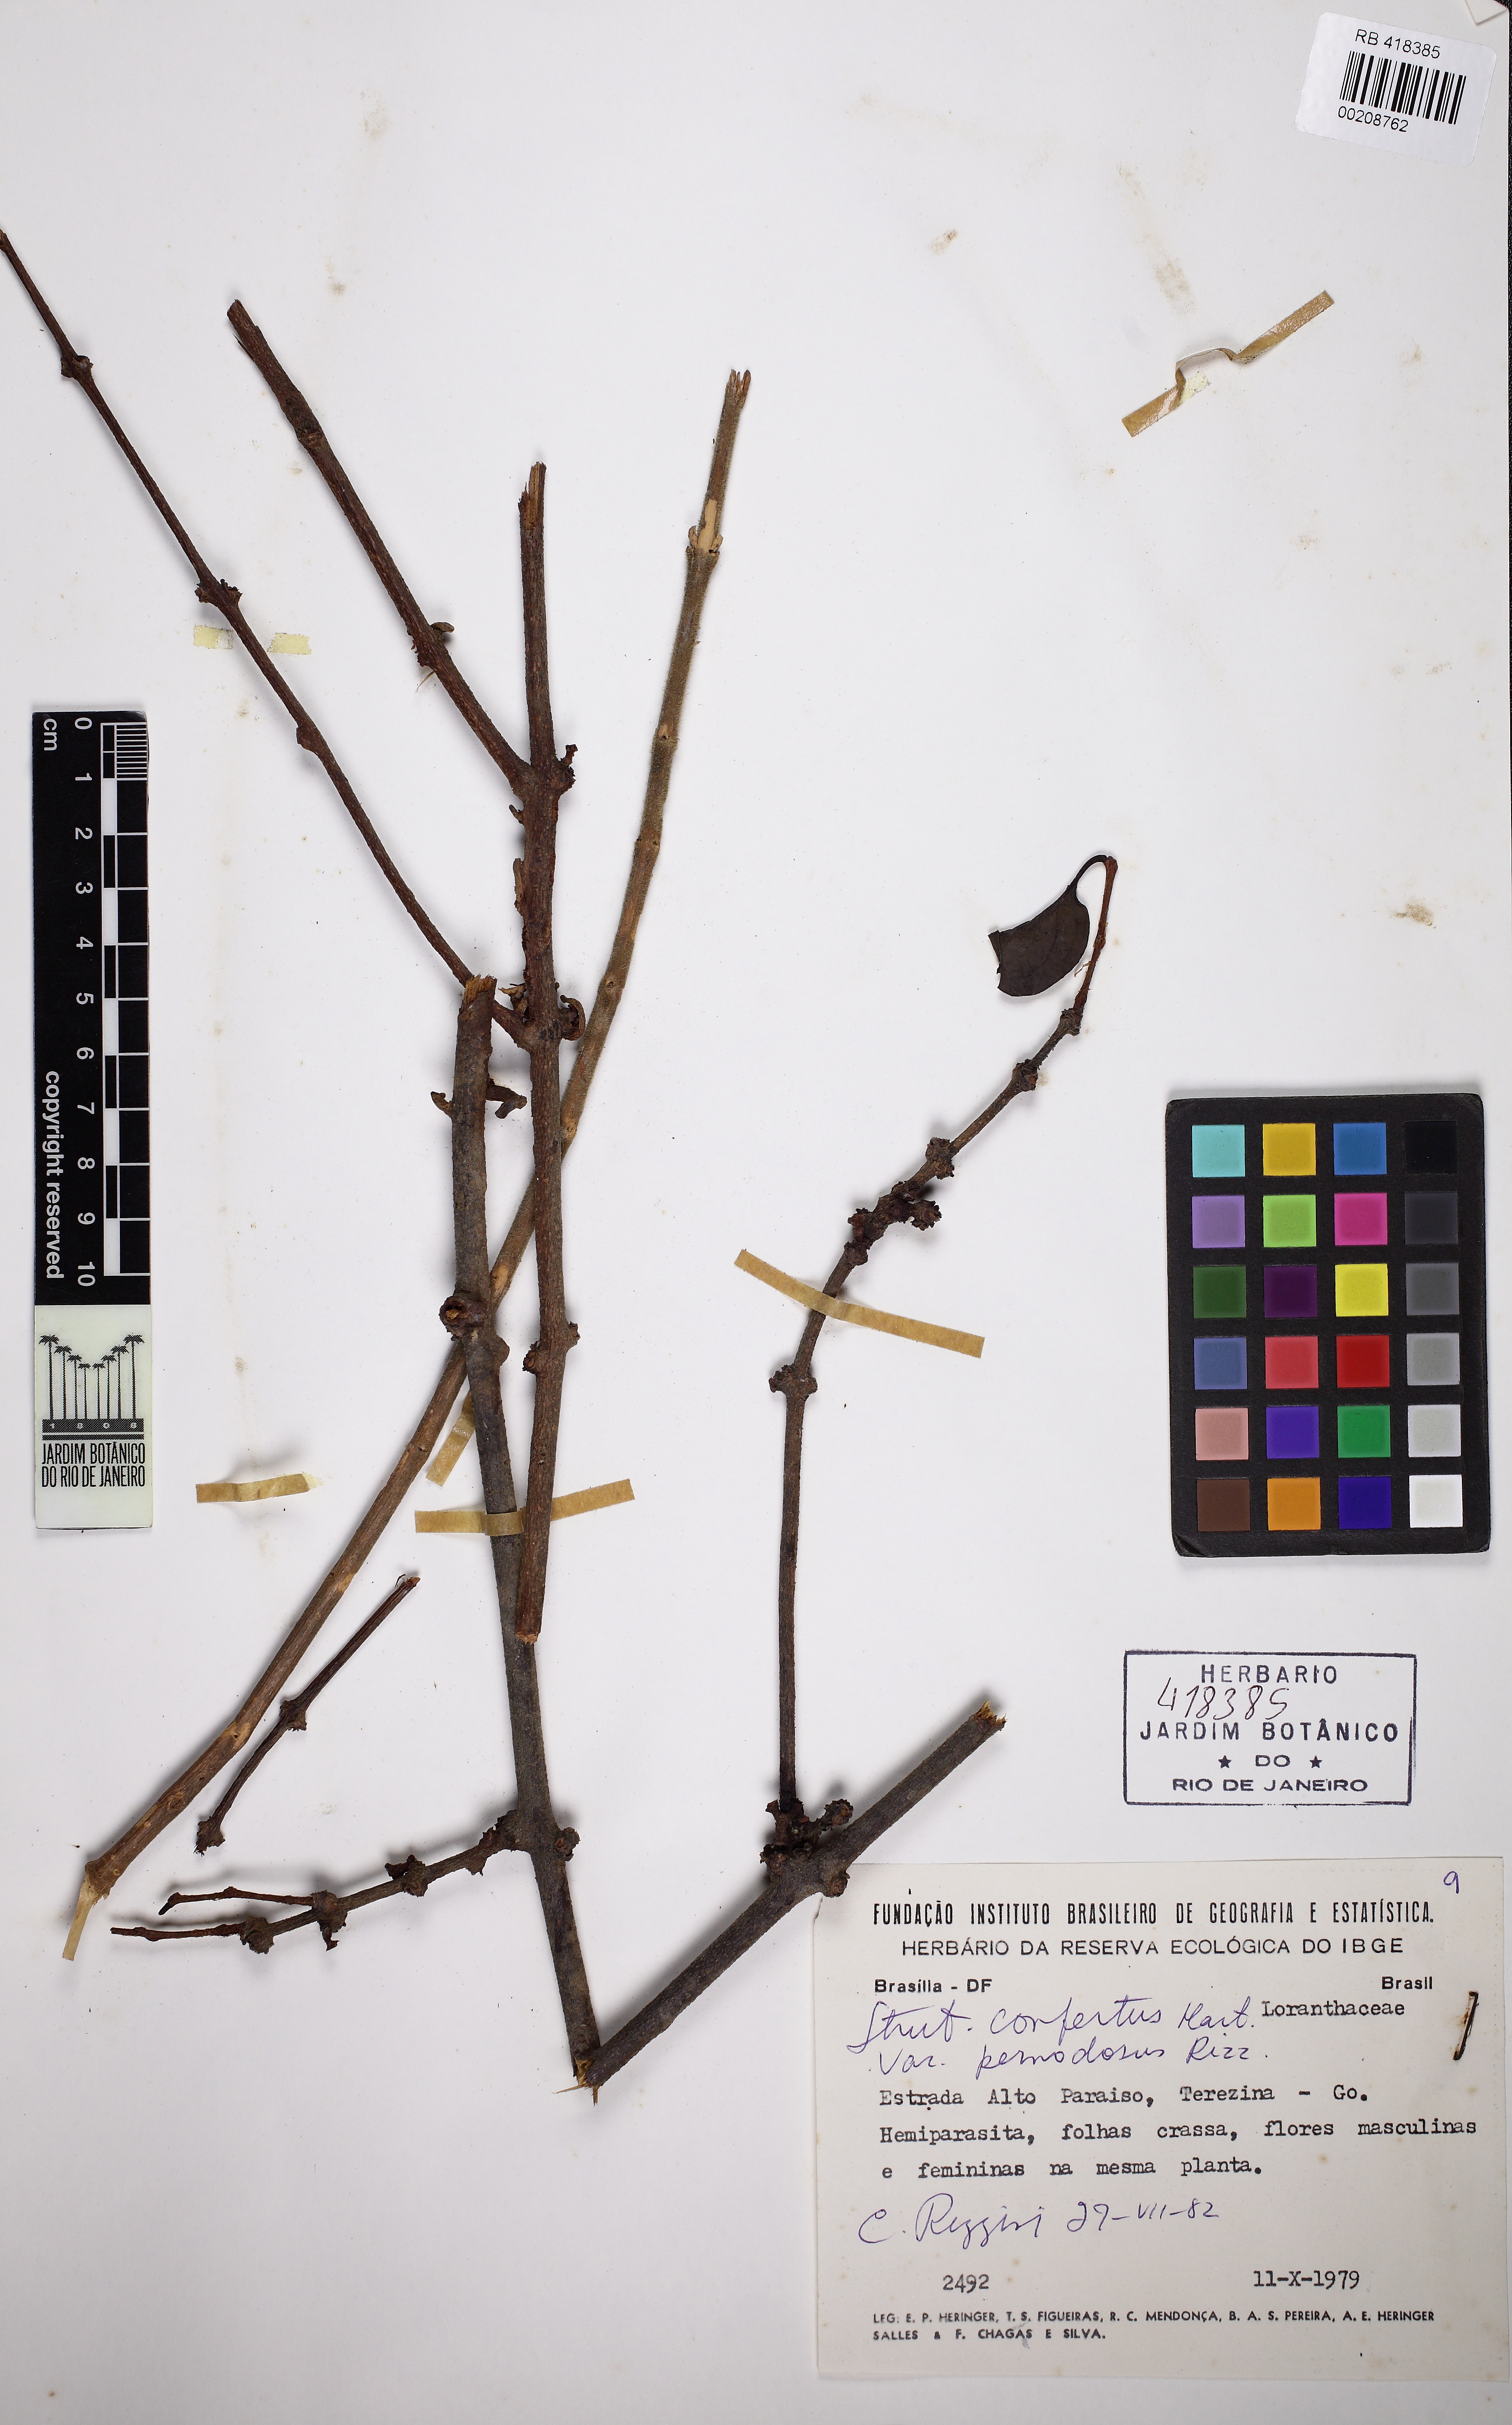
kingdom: Plantae
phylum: Tracheophyta
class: Magnoliopsida
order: Santalales
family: Loranthaceae
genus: Struthanthus
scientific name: Struthanthus confertus
